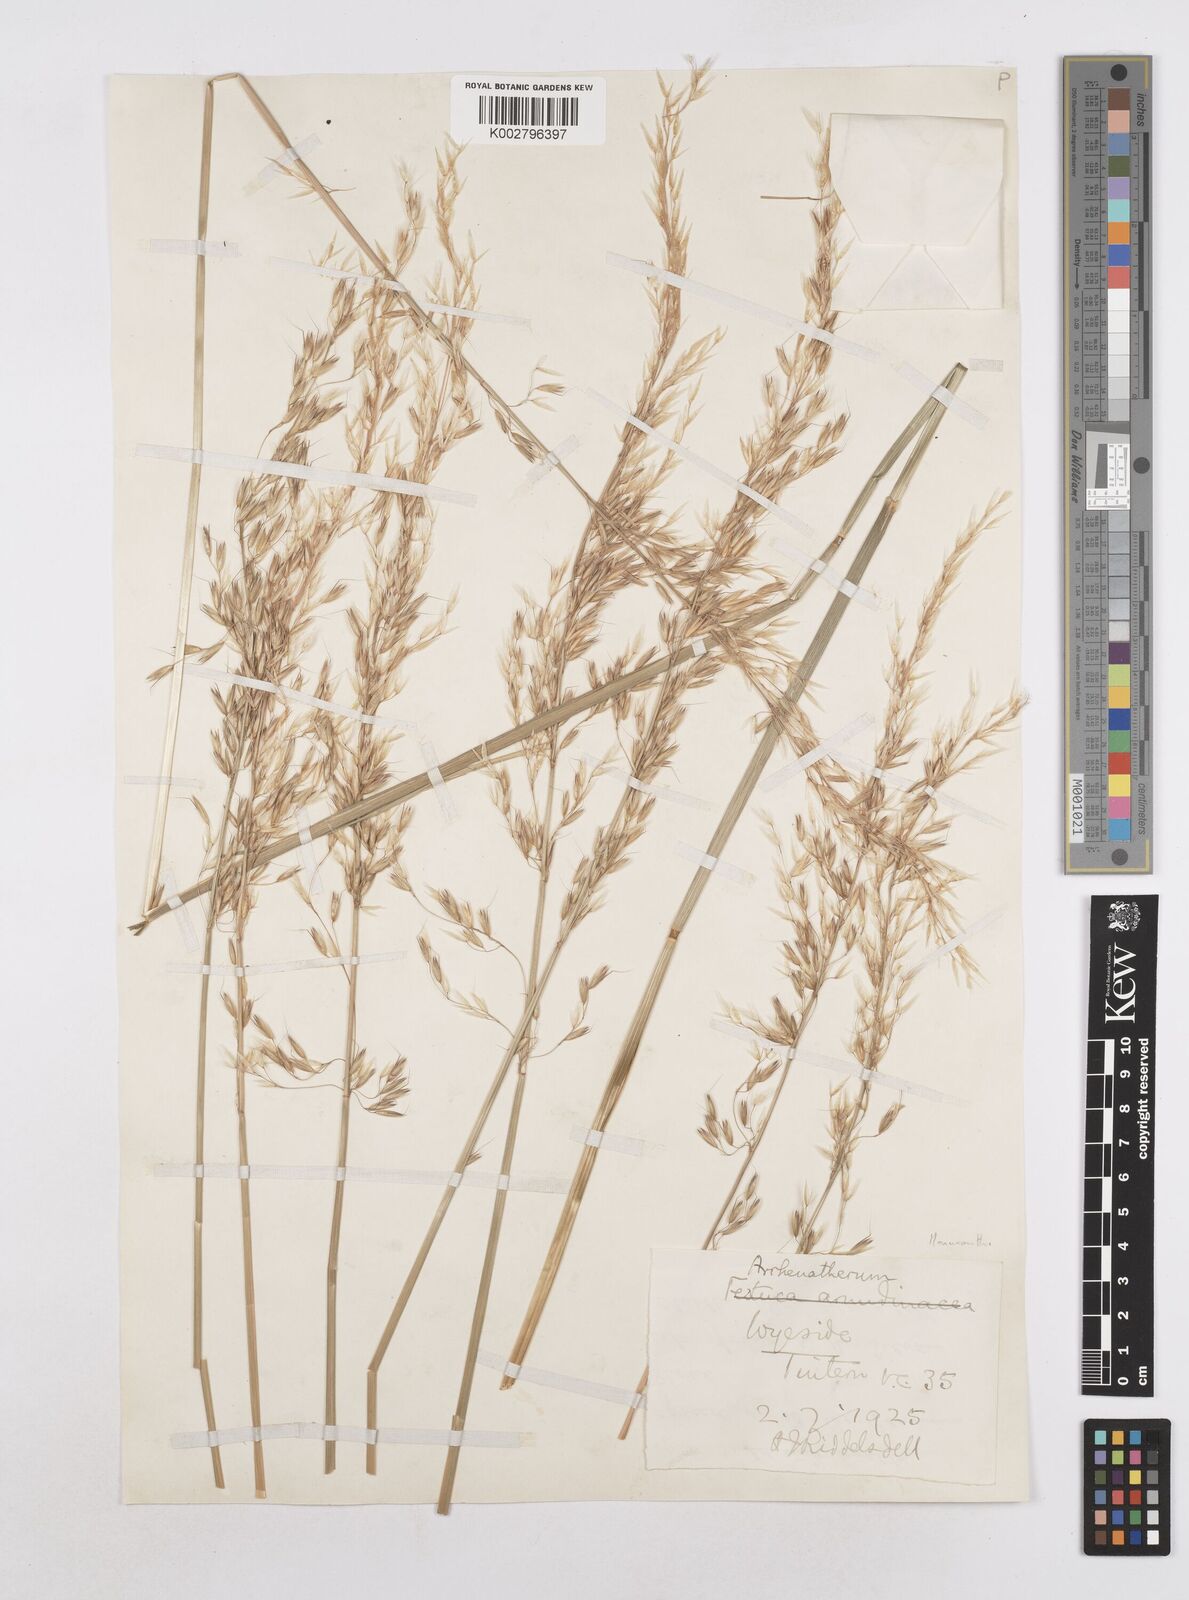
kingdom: Plantae
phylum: Tracheophyta
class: Liliopsida
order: Poales
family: Poaceae
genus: Arrhenatherum
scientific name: Arrhenatherum elatius
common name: Tall oatgrass
